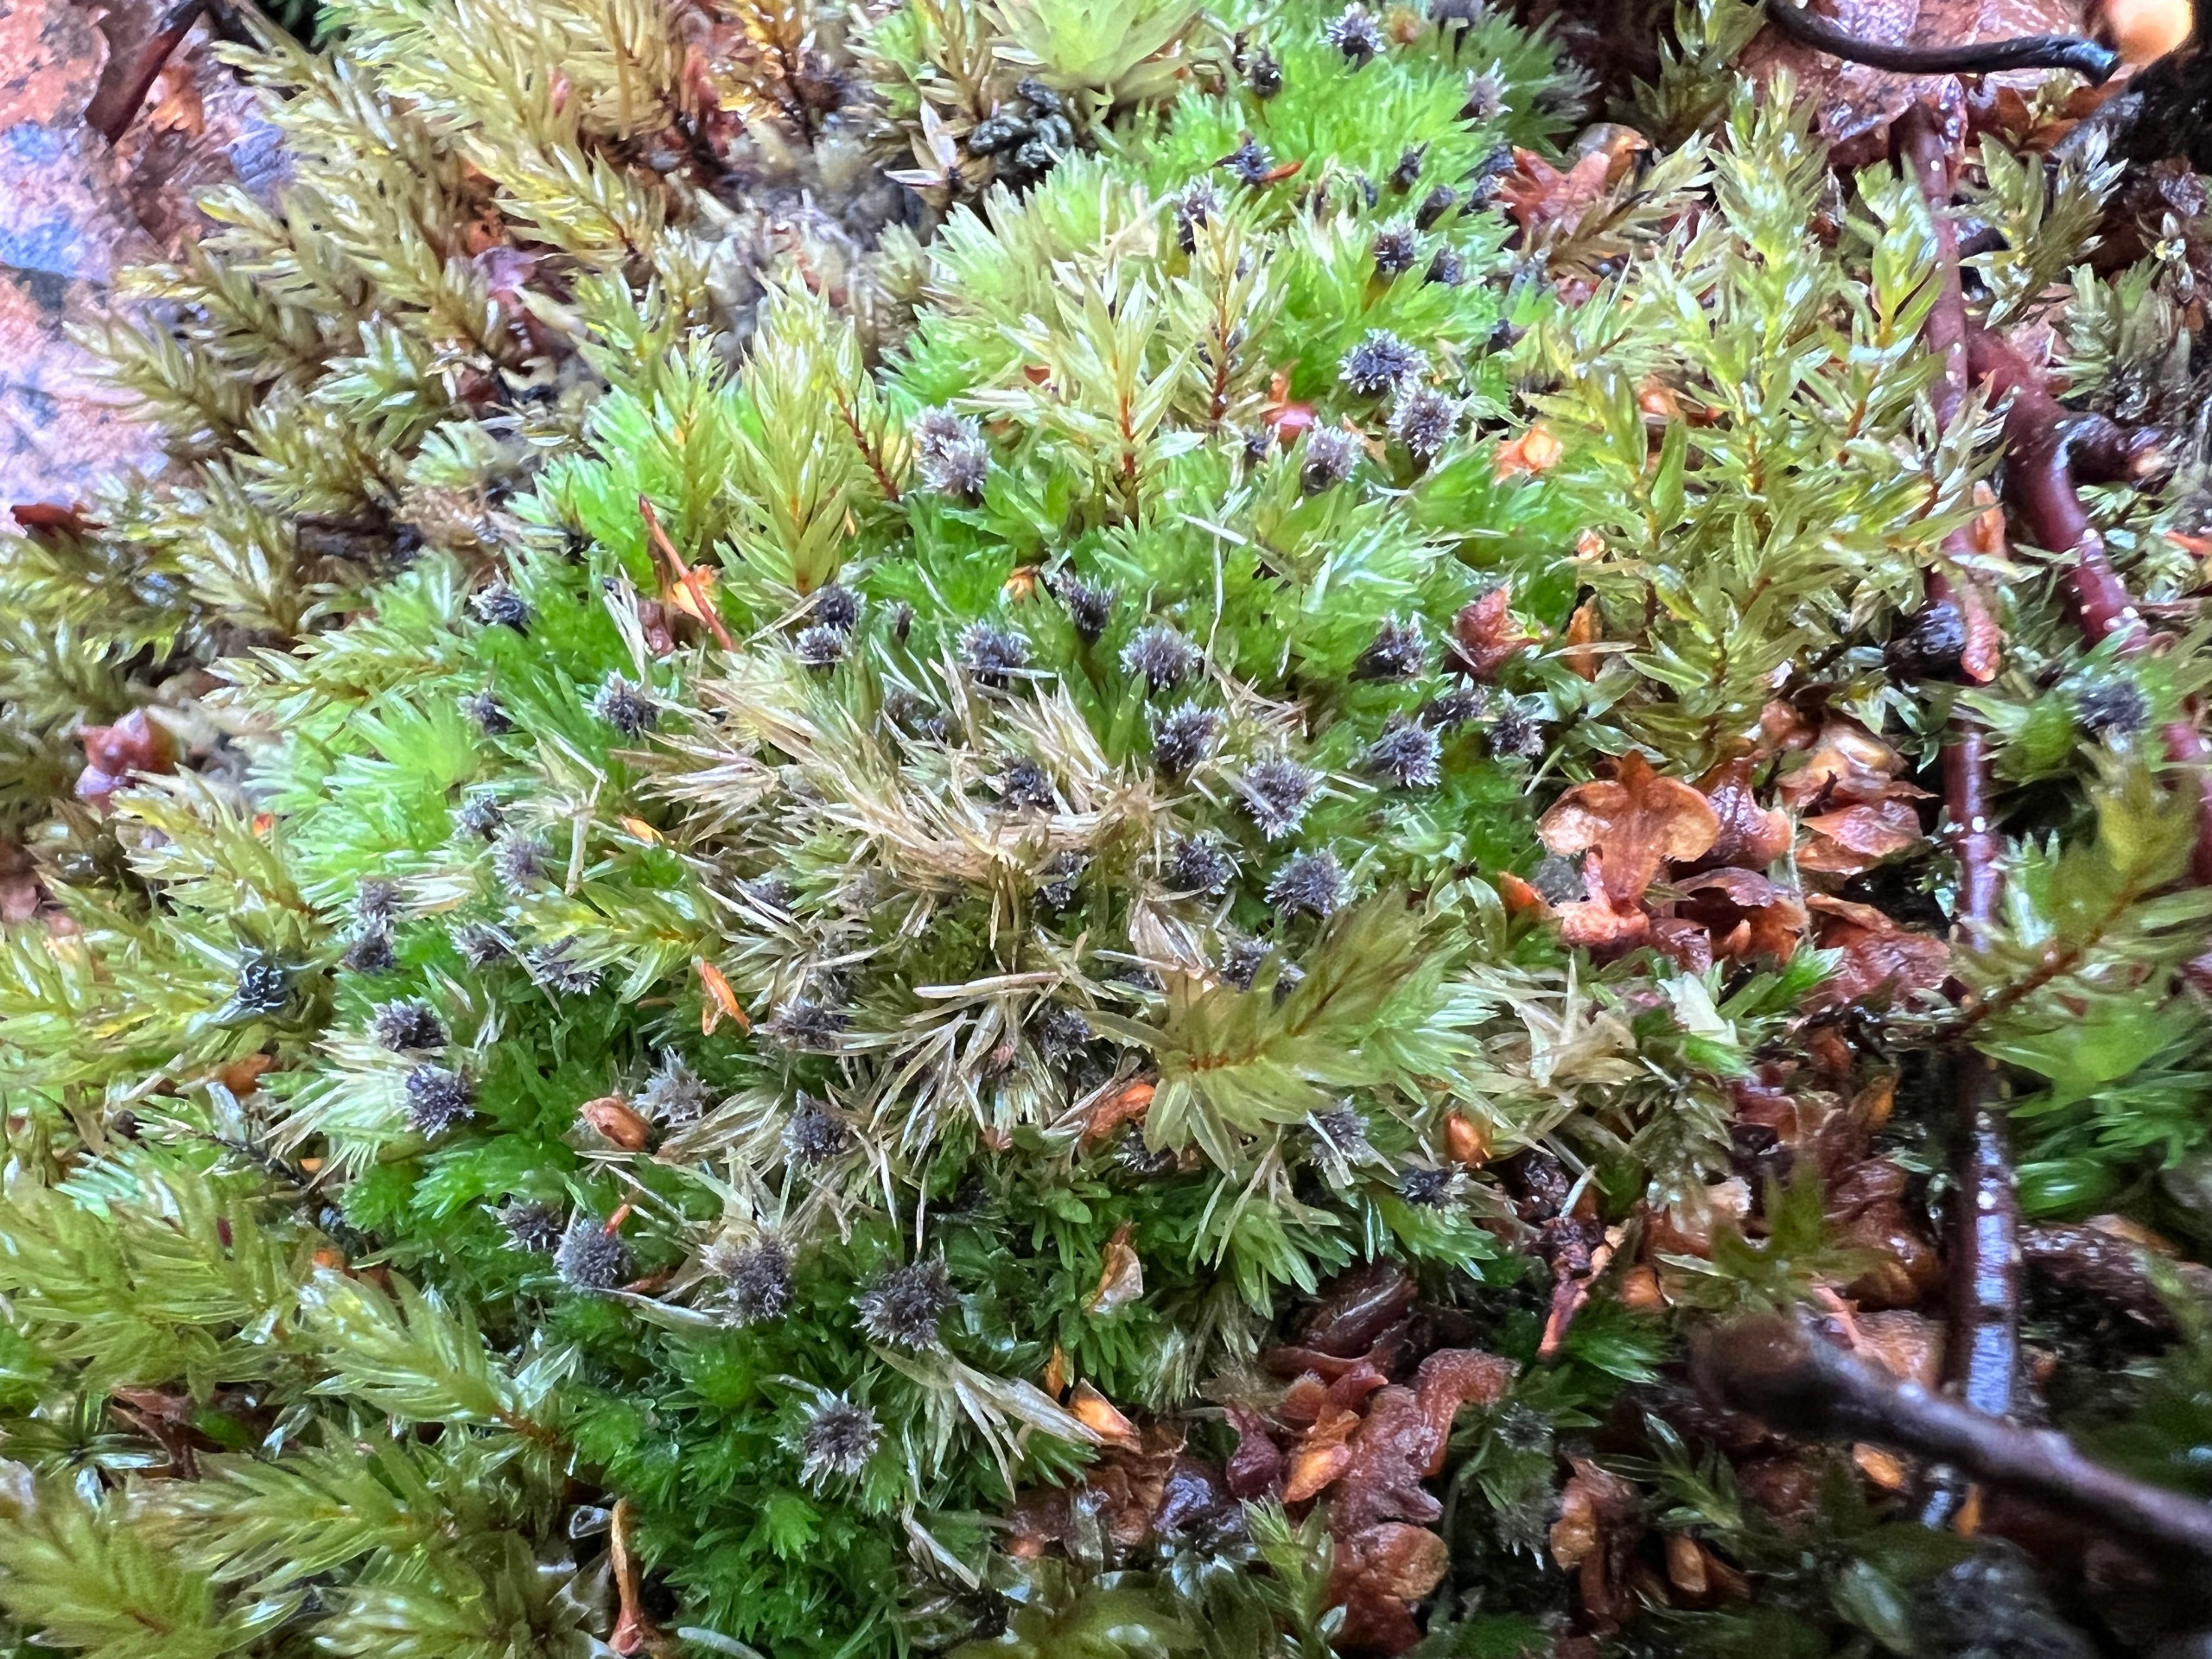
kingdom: Plantae
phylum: Bryophyta
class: Bryopsida
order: Dicranales
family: Leucobryaceae
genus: Leucobryum
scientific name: Leucobryum glaucum
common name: Almindelig hvidmos
